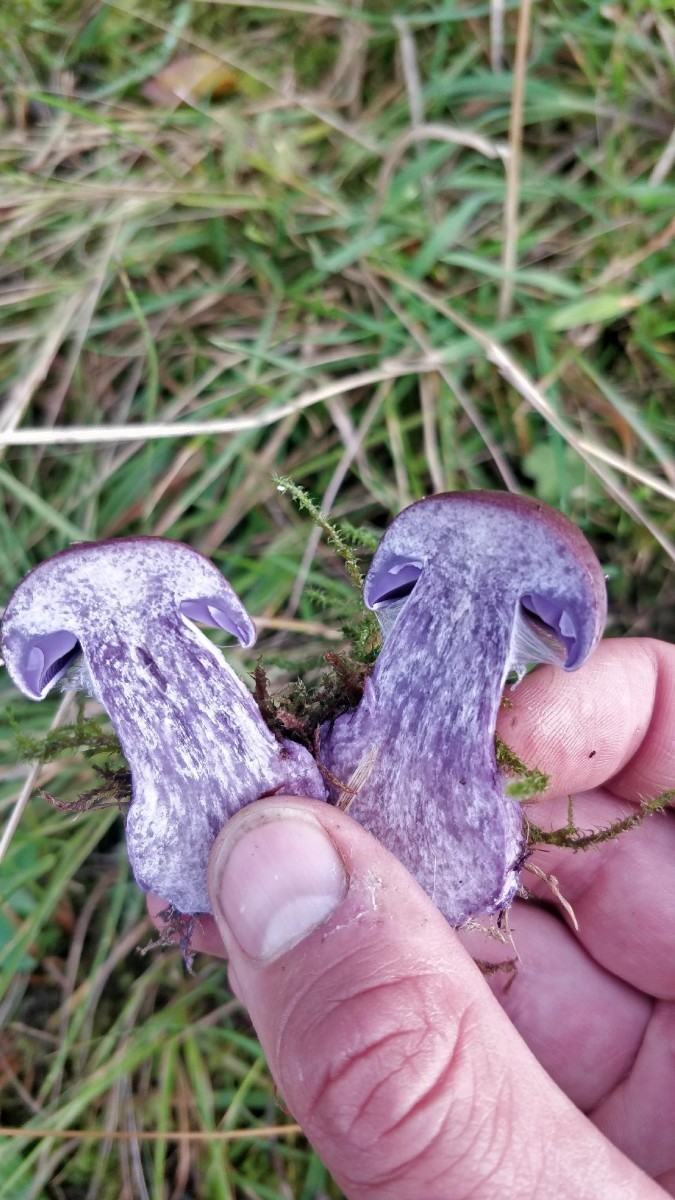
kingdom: Fungi
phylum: Basidiomycota
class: Agaricomycetes
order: Agaricales
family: Cortinariaceae
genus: Thaxterogaster
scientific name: Thaxterogaster purpurascens
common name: purpurbrun slørhat
